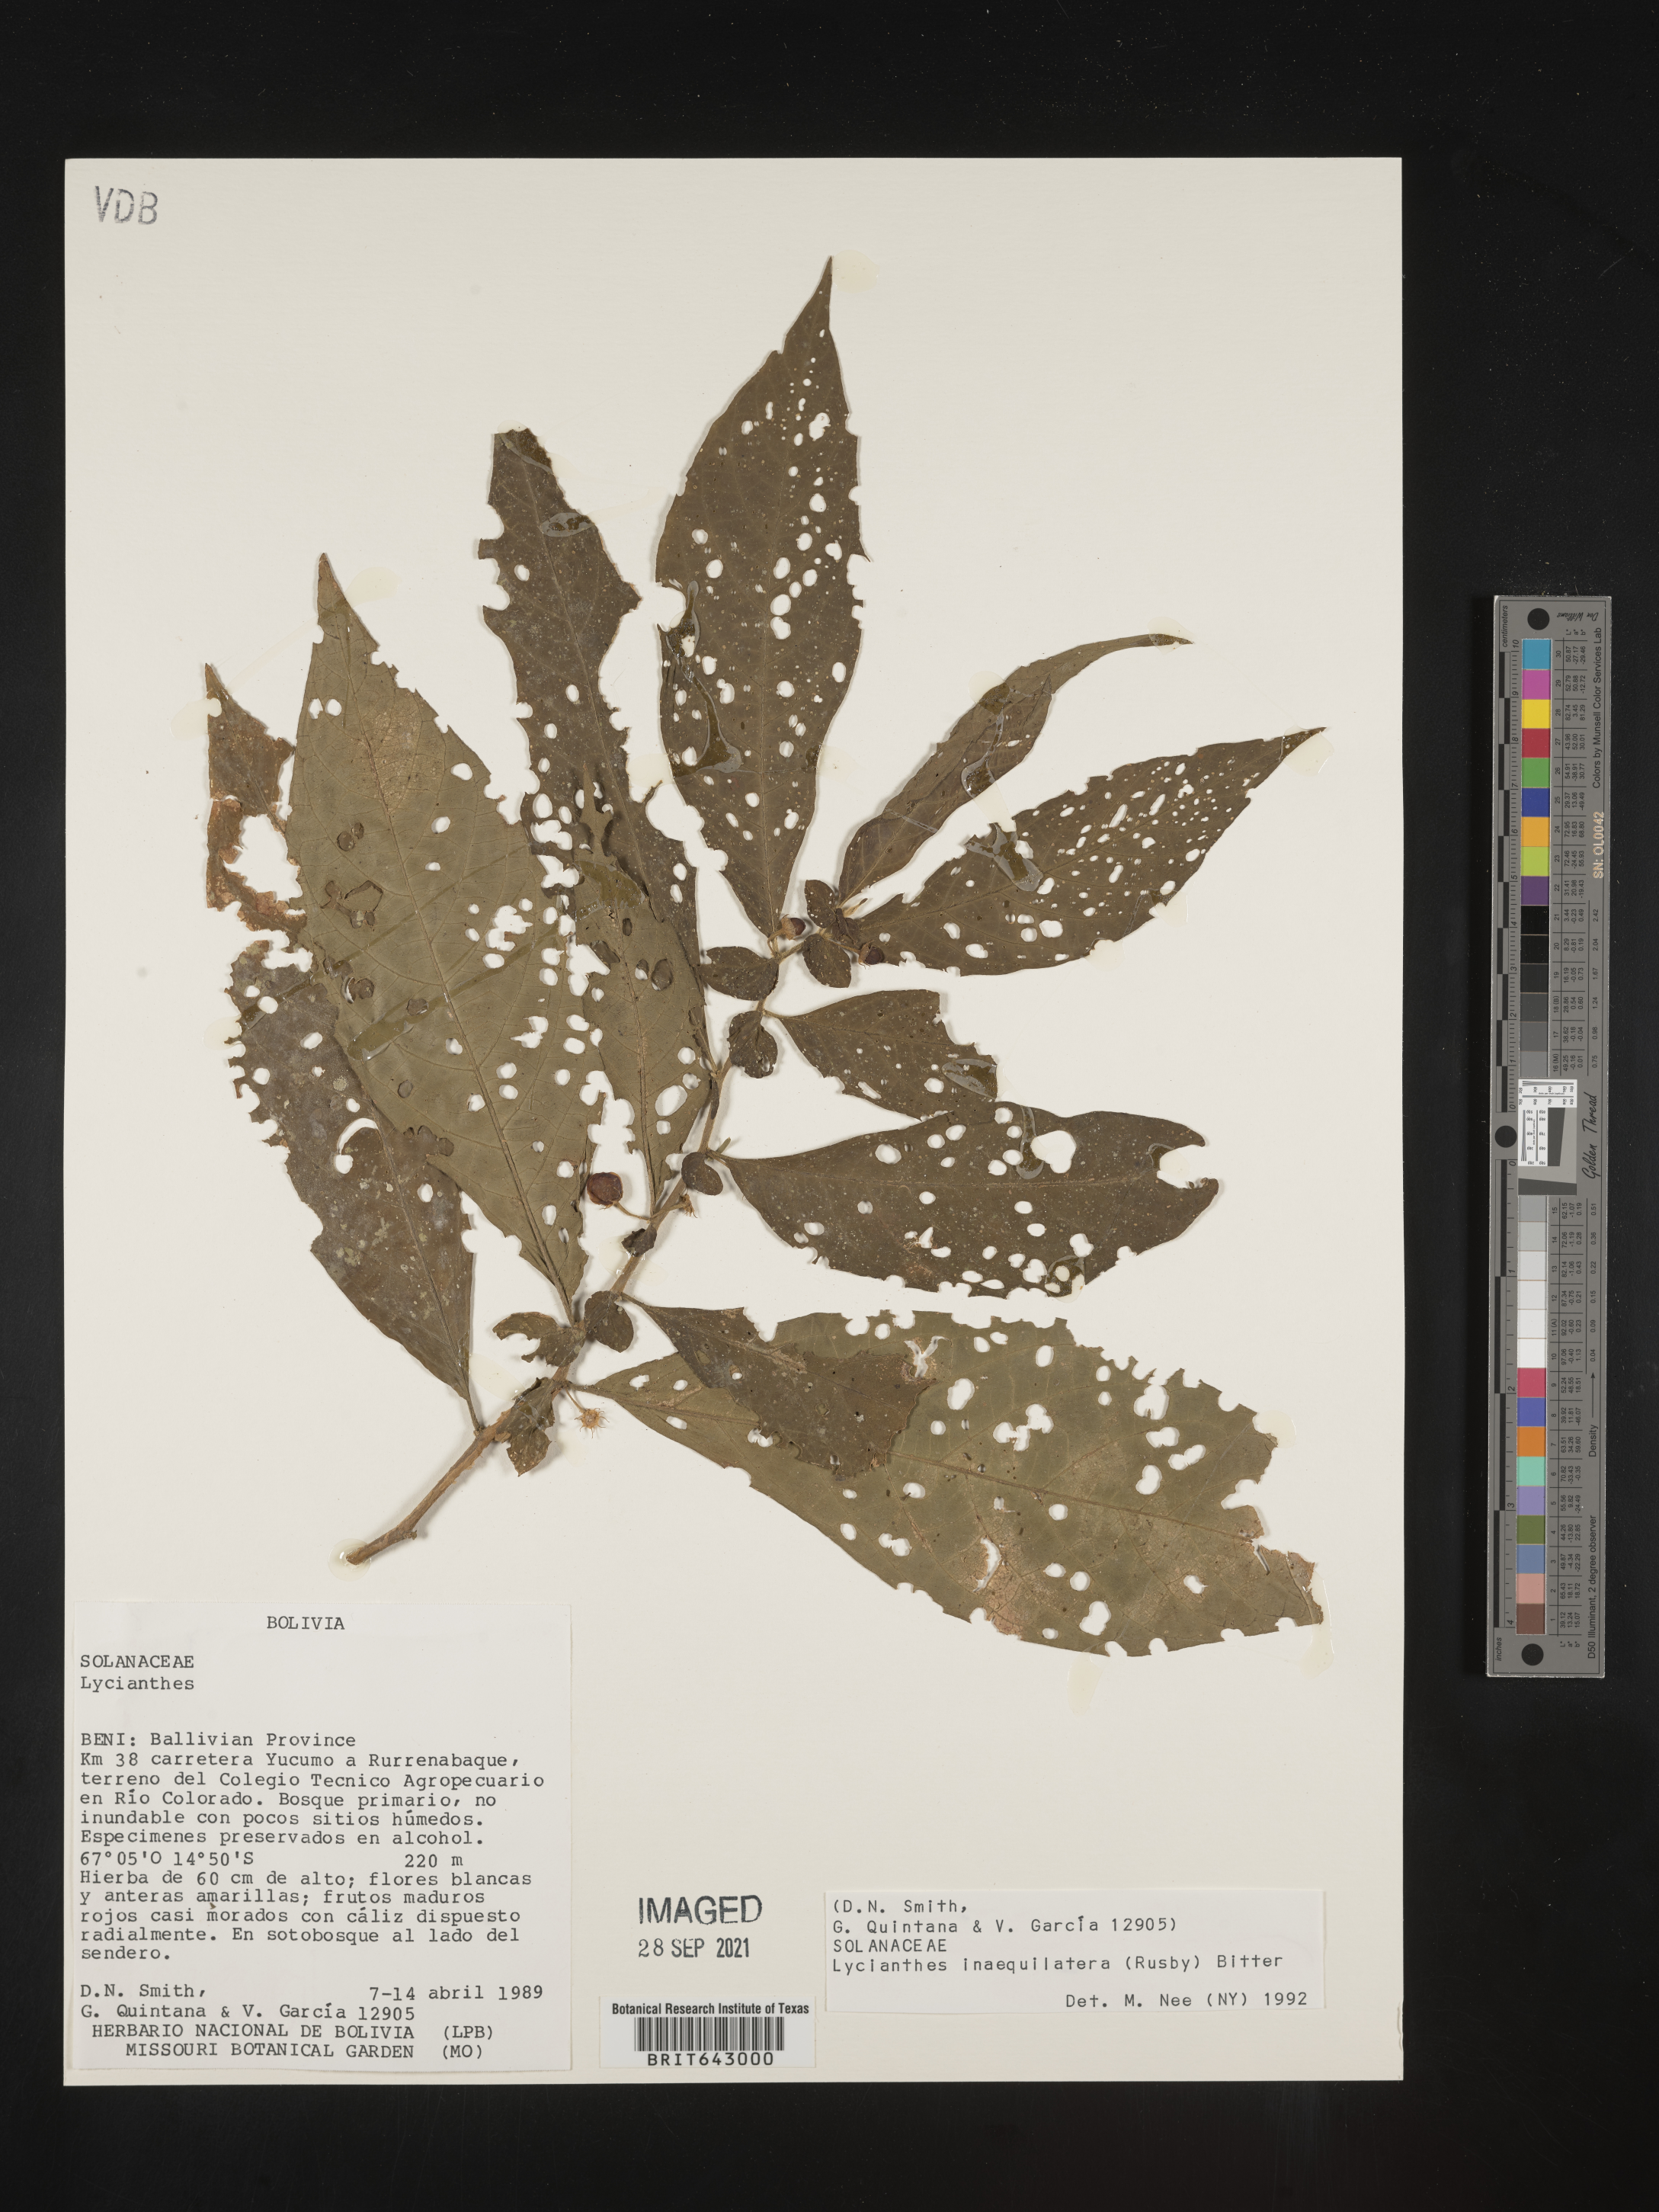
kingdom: Plantae
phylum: Tracheophyta
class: Magnoliopsida
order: Solanales
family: Solanaceae
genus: Lycianthes
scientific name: Lycianthes
